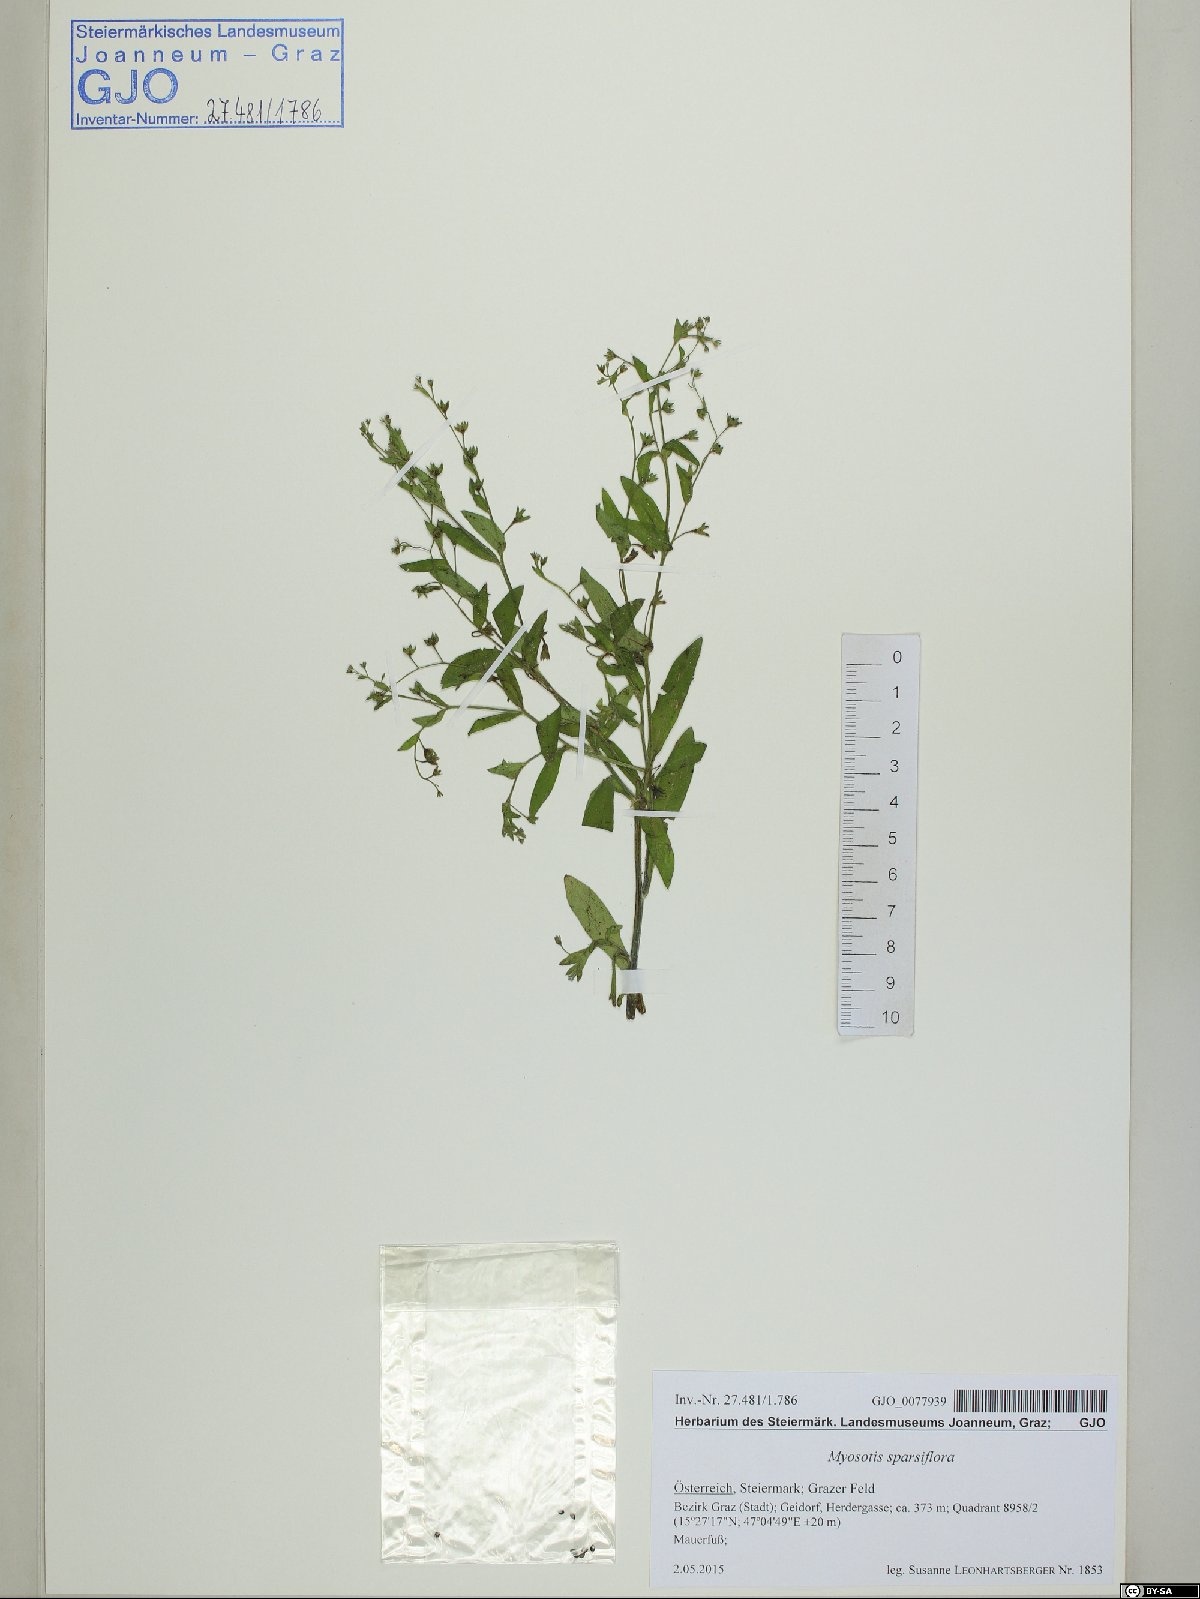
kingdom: Plantae
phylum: Tracheophyta
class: Magnoliopsida
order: Boraginales
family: Boraginaceae
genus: Myosotis
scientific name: Myosotis sparsiflora
